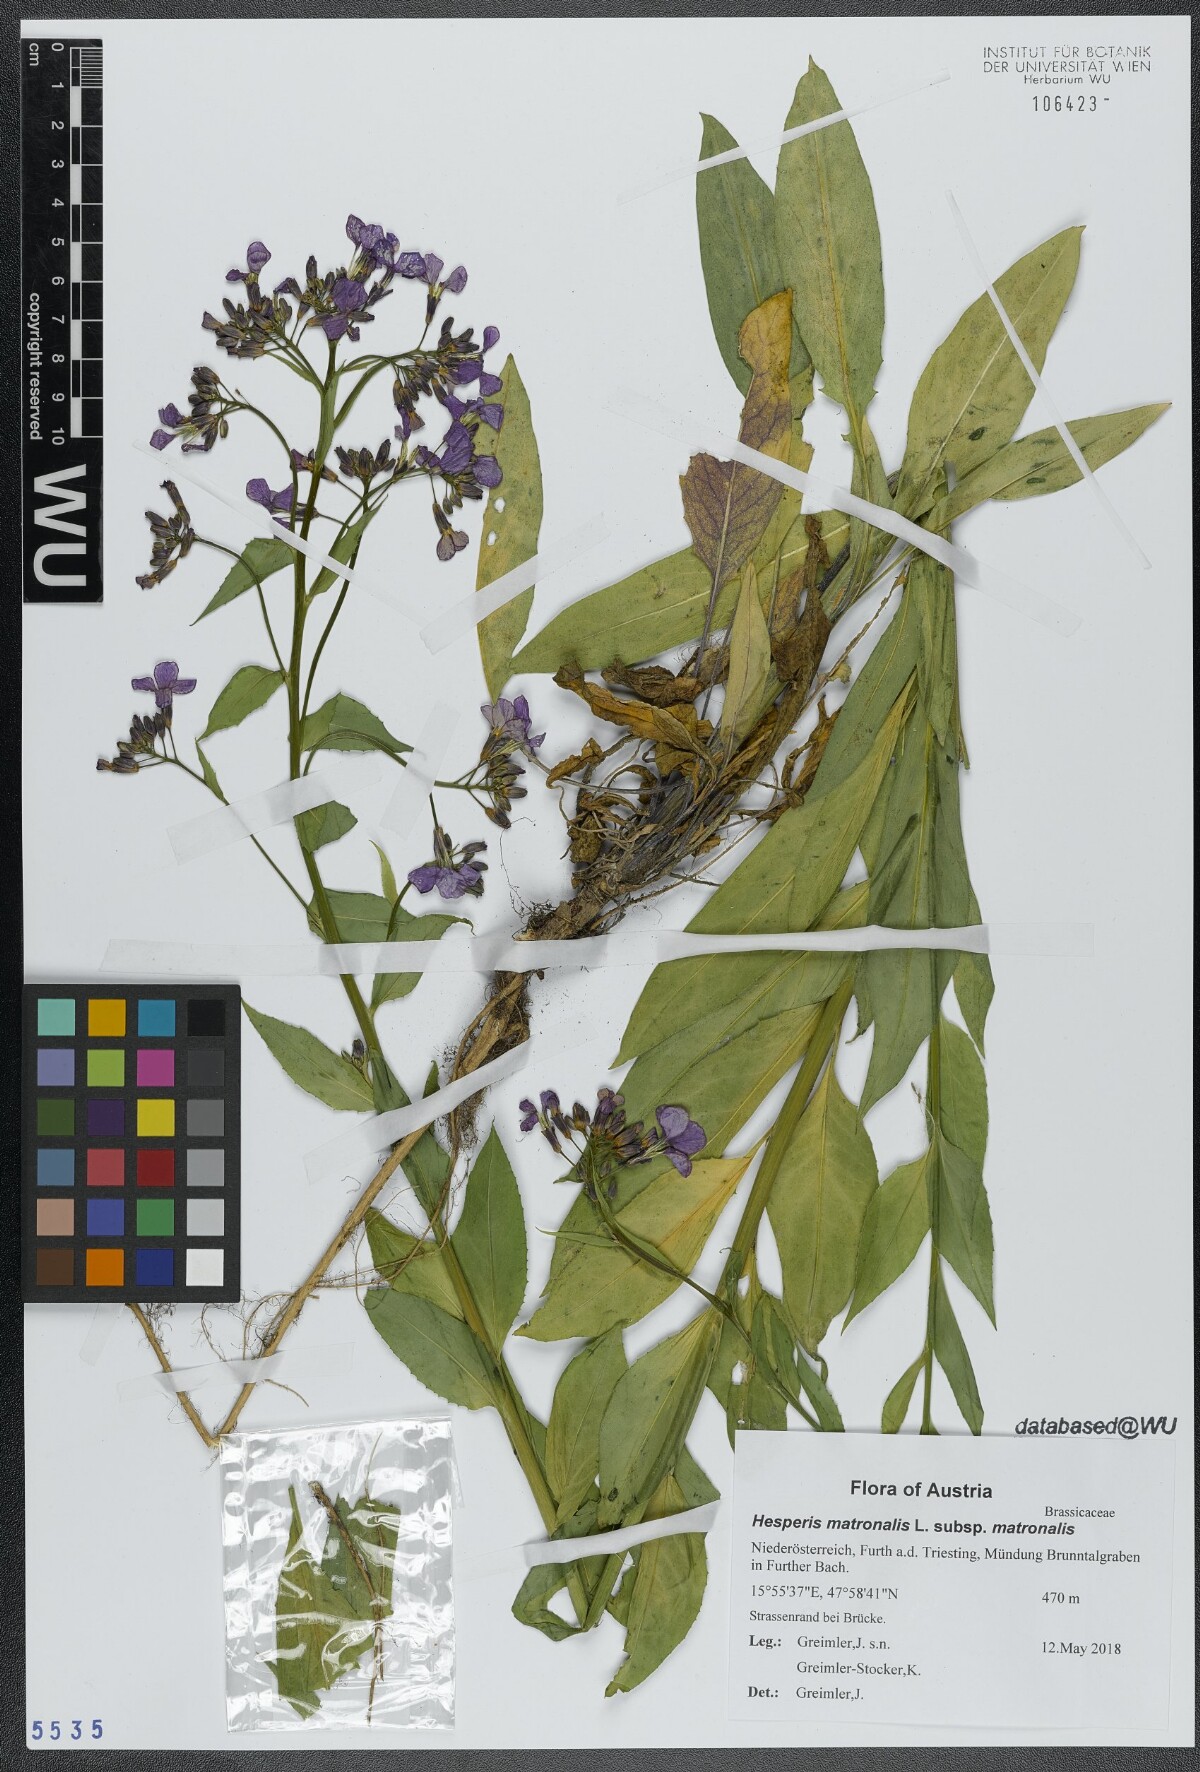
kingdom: Plantae
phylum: Tracheophyta
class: Magnoliopsida
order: Brassicales
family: Brassicaceae
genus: Hesperis
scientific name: Hesperis matronalis
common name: Dame's-violet
